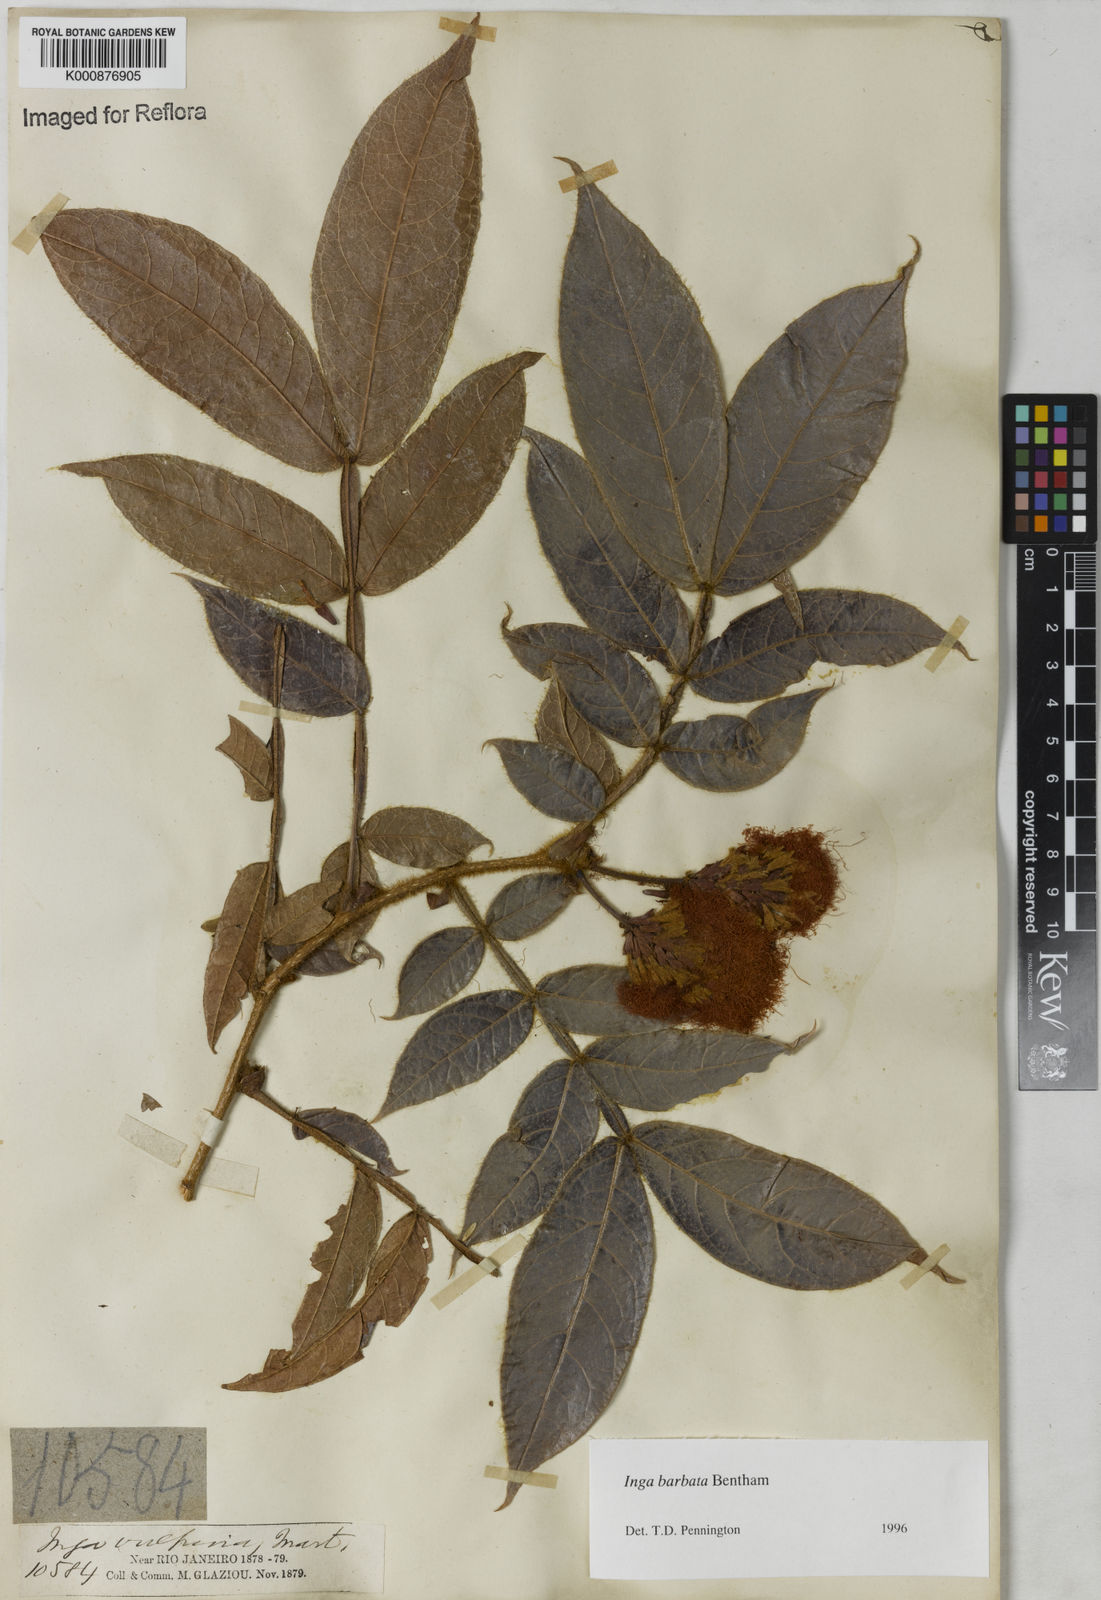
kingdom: Plantae
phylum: Tracheophyta
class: Magnoliopsida
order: Fabales
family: Fabaceae
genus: Inga
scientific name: Inga barbata
